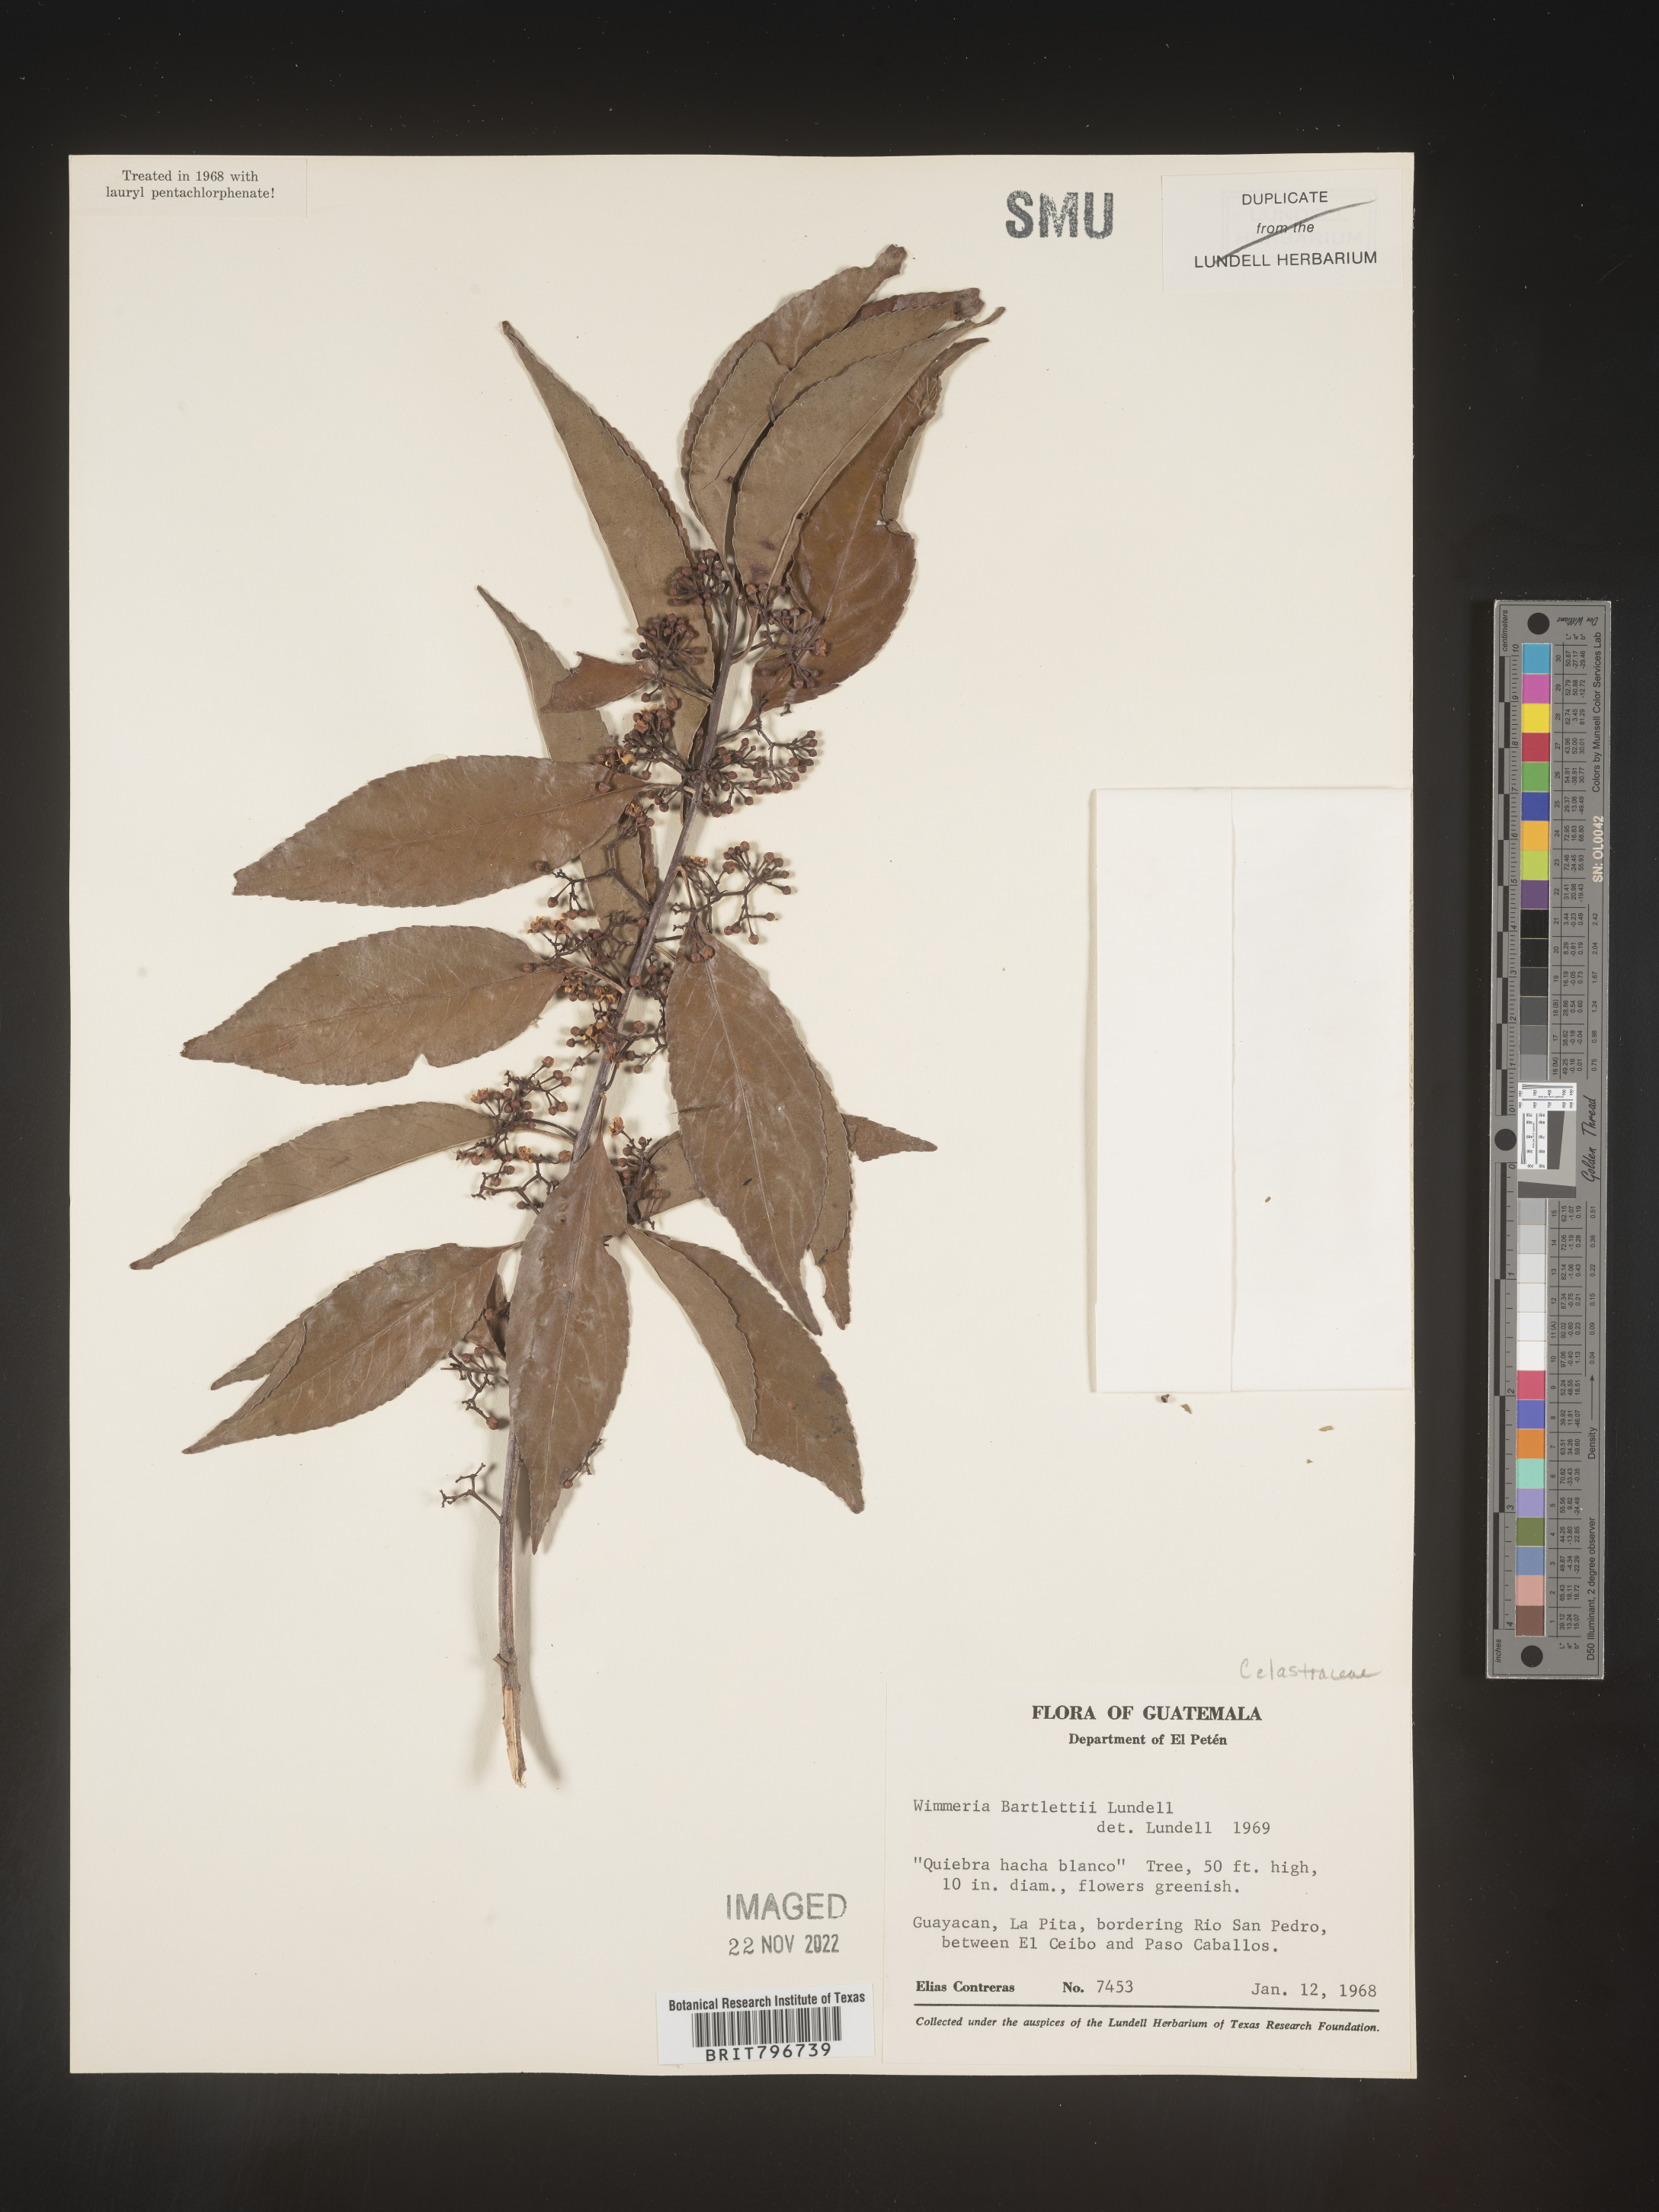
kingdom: Plantae
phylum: Tracheophyta
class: Magnoliopsida
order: Celastrales
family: Celastraceae
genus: Wimmeria
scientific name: Wimmeria
